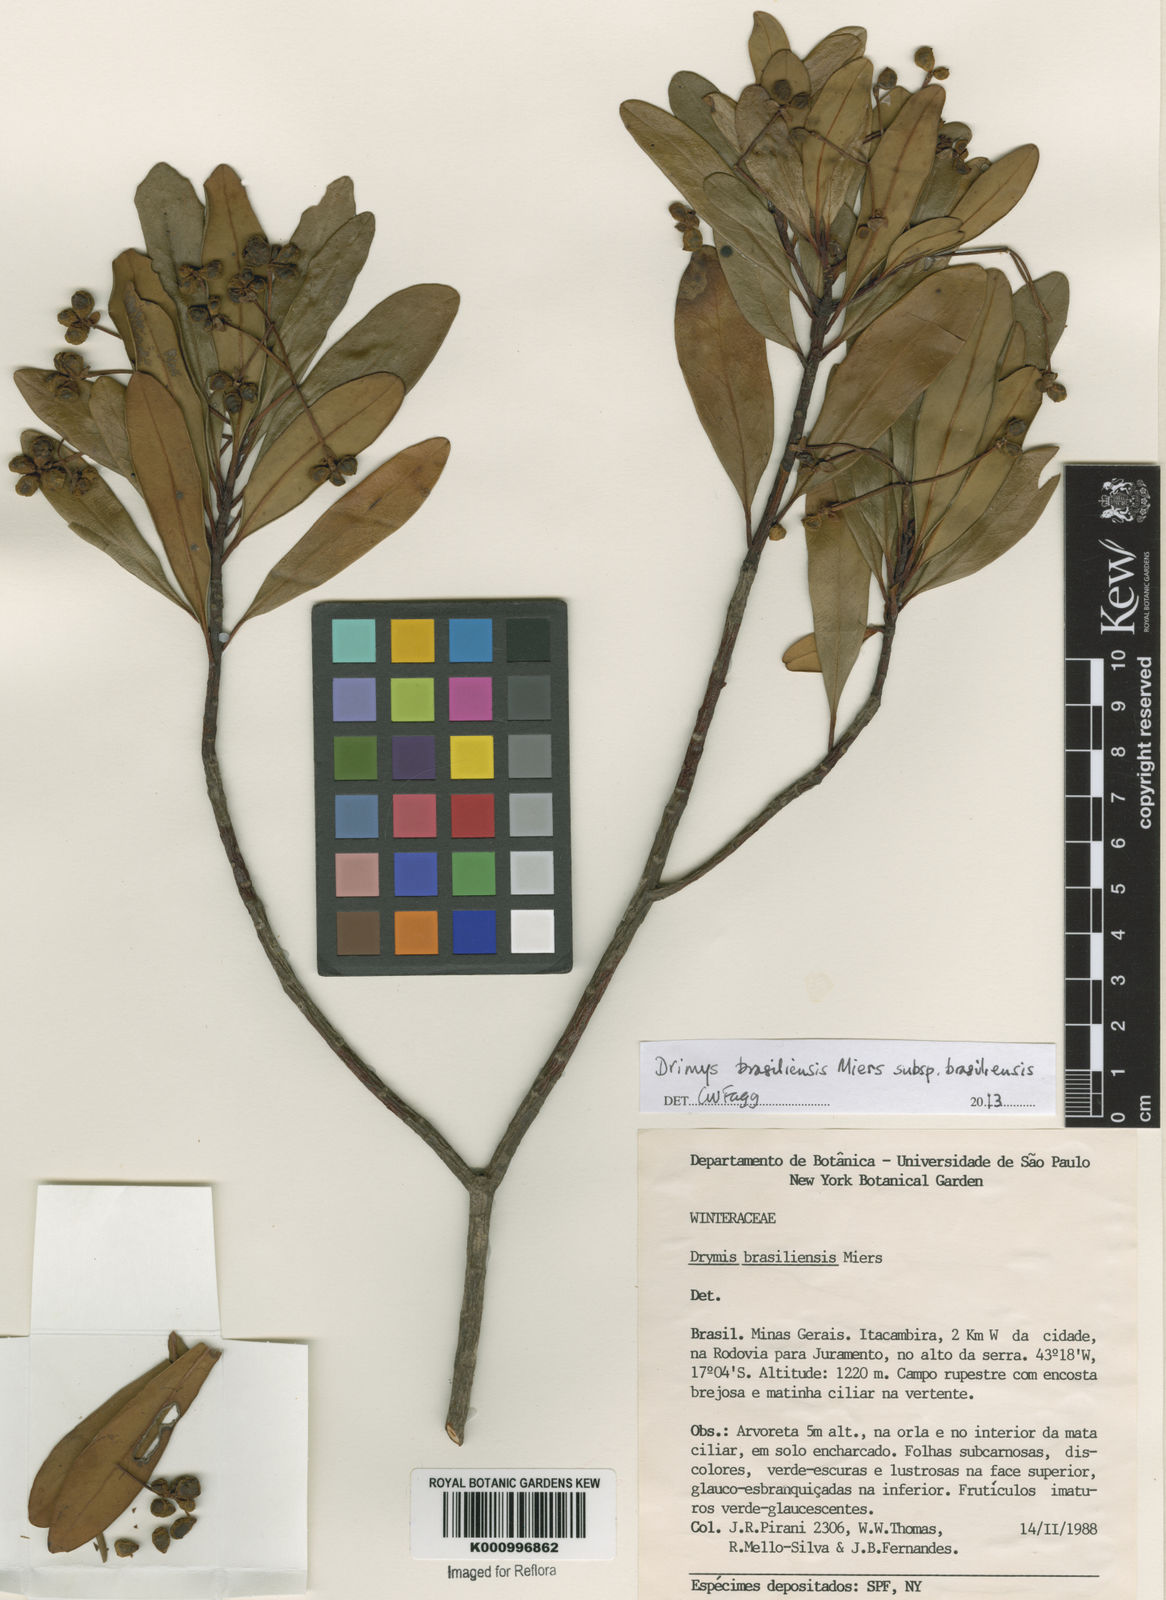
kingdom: Plantae
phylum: Tracheophyta
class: Magnoliopsida
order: Canellales
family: Winteraceae
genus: Drimys
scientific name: Drimys brasiliensis
